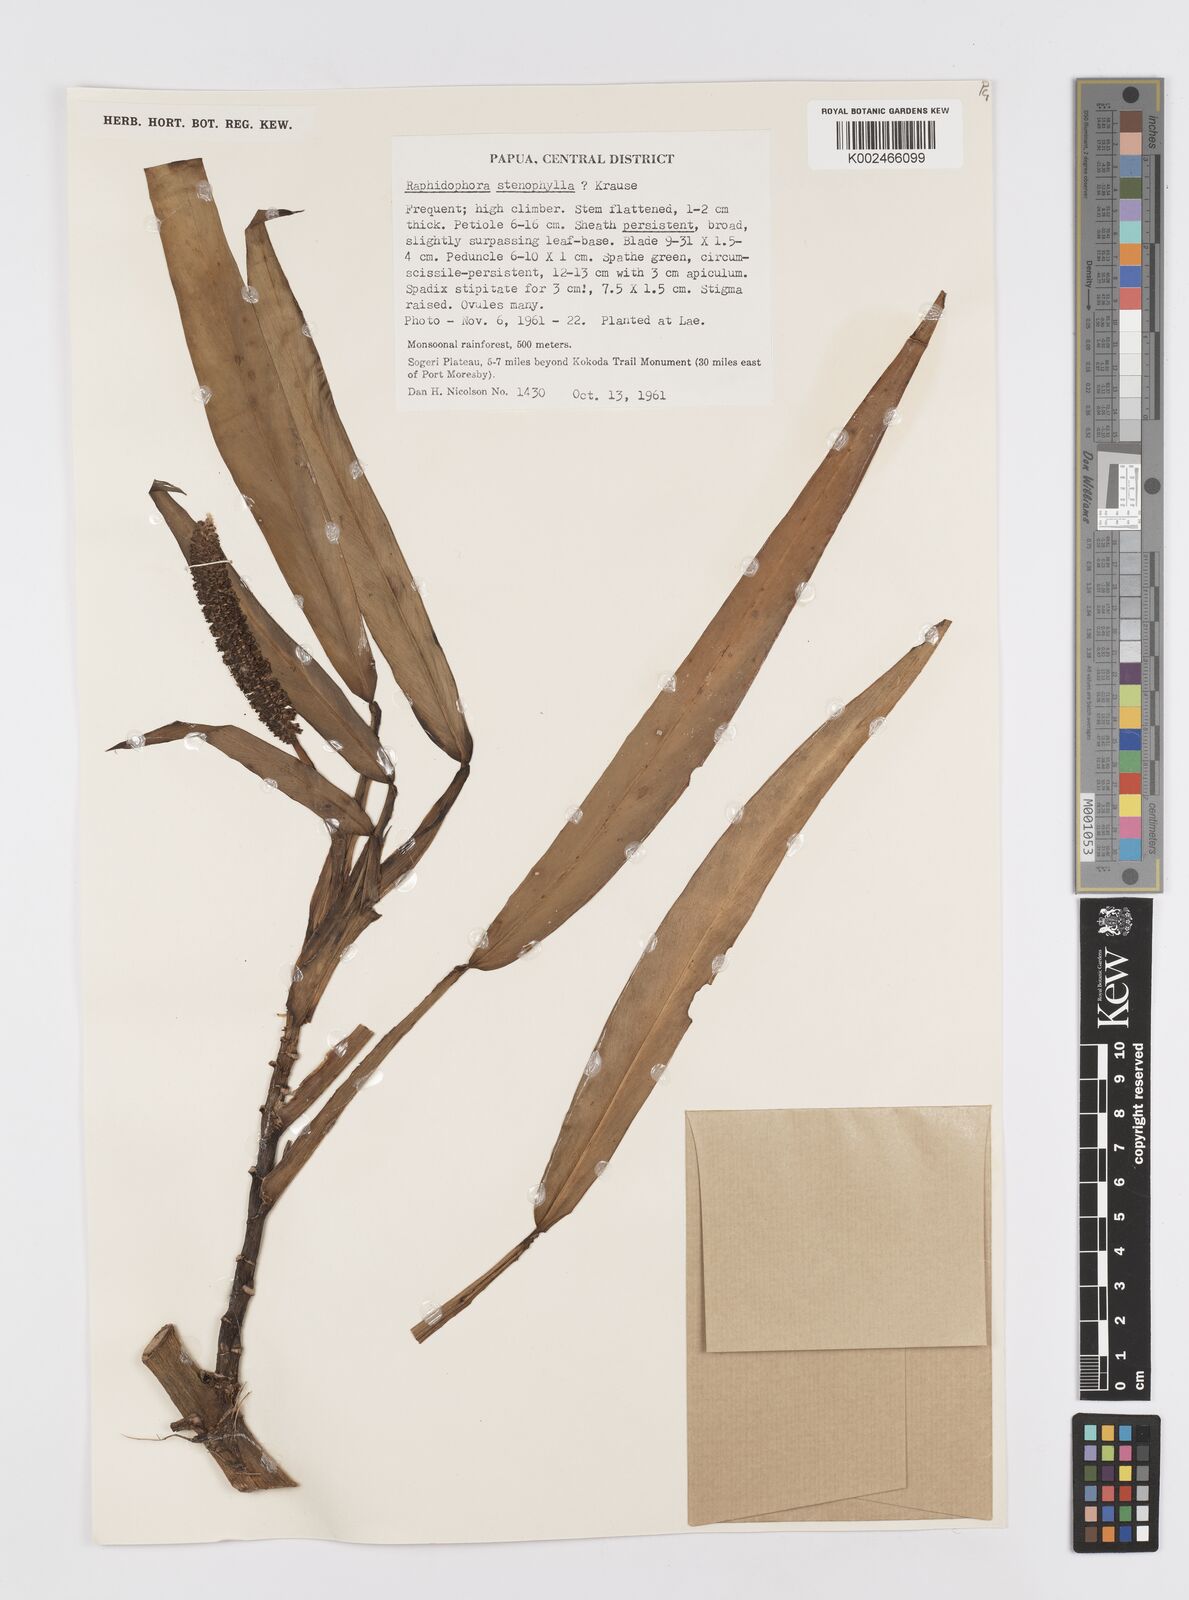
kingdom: Plantae
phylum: Tracheophyta
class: Liliopsida
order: Alismatales
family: Araceae
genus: Rhaphidophora
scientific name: Rhaphidophora stenophylla
